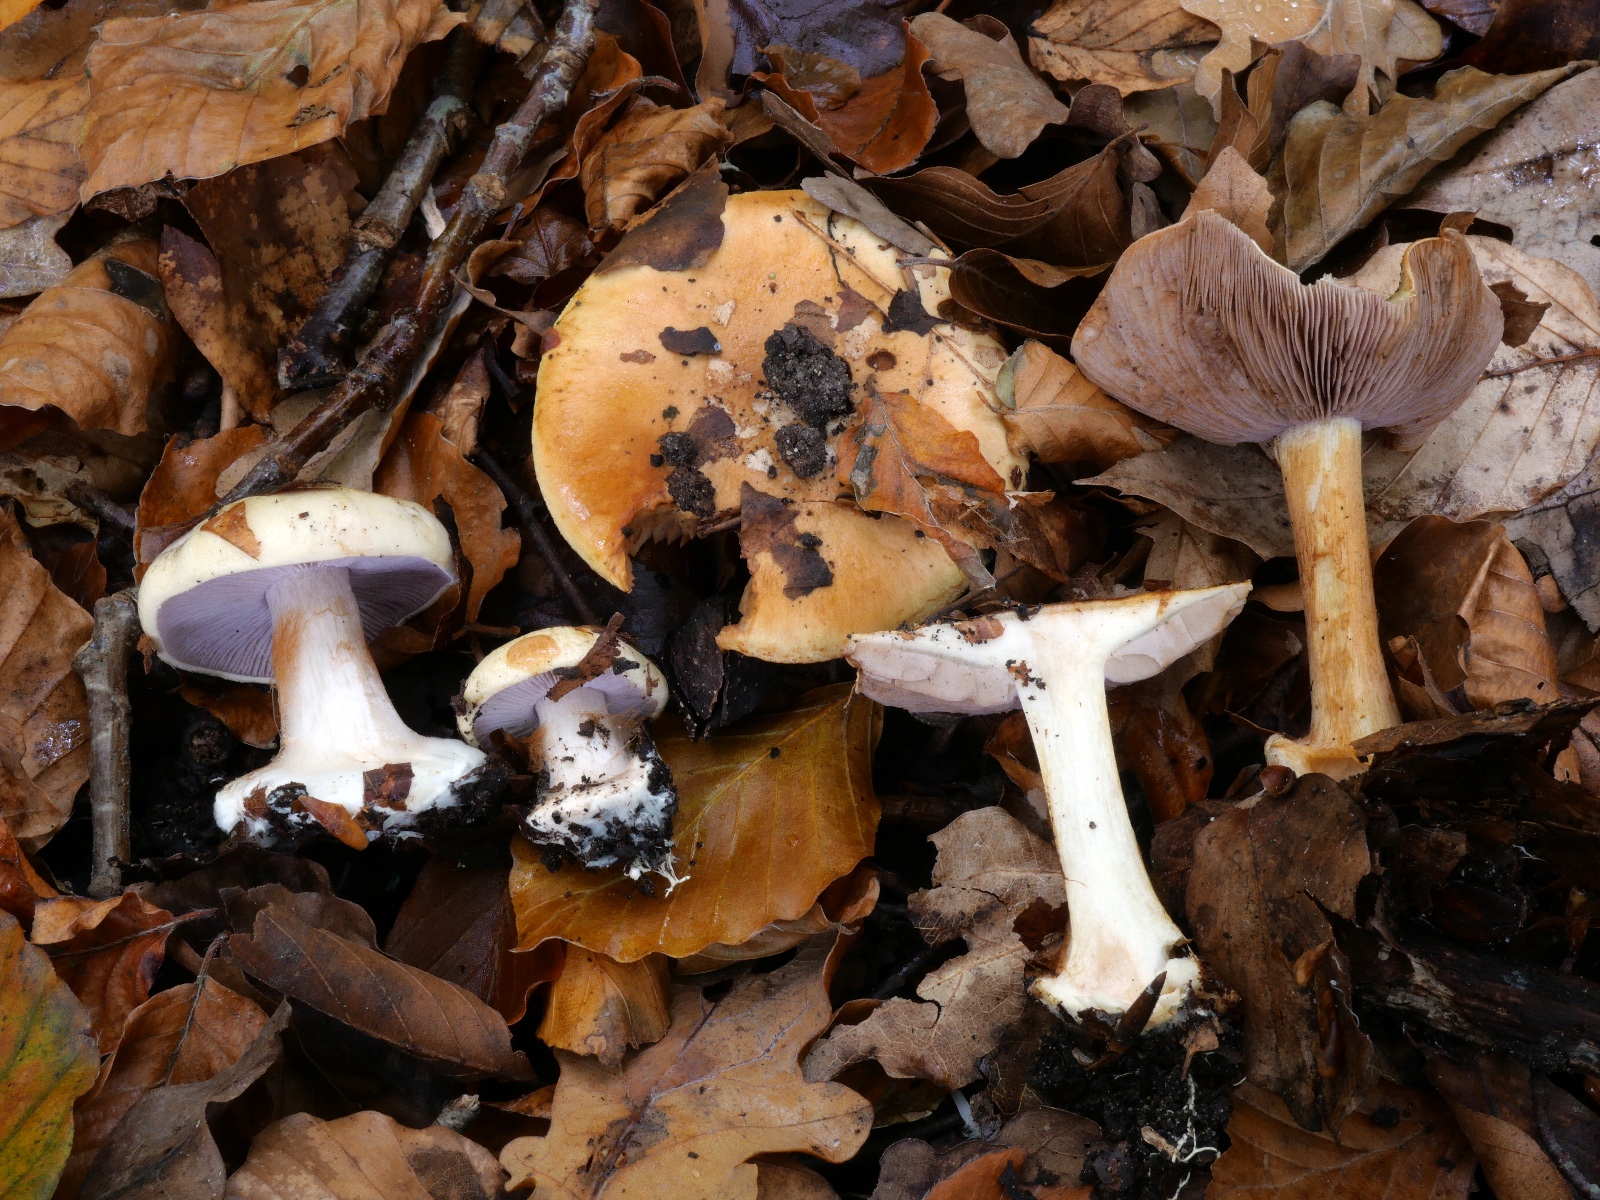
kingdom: Fungi
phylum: Basidiomycota
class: Agaricomycetes
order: Agaricales
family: Cortinariaceae
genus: Calonarius
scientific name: Calonarius platypus
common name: platfodet slørhat
